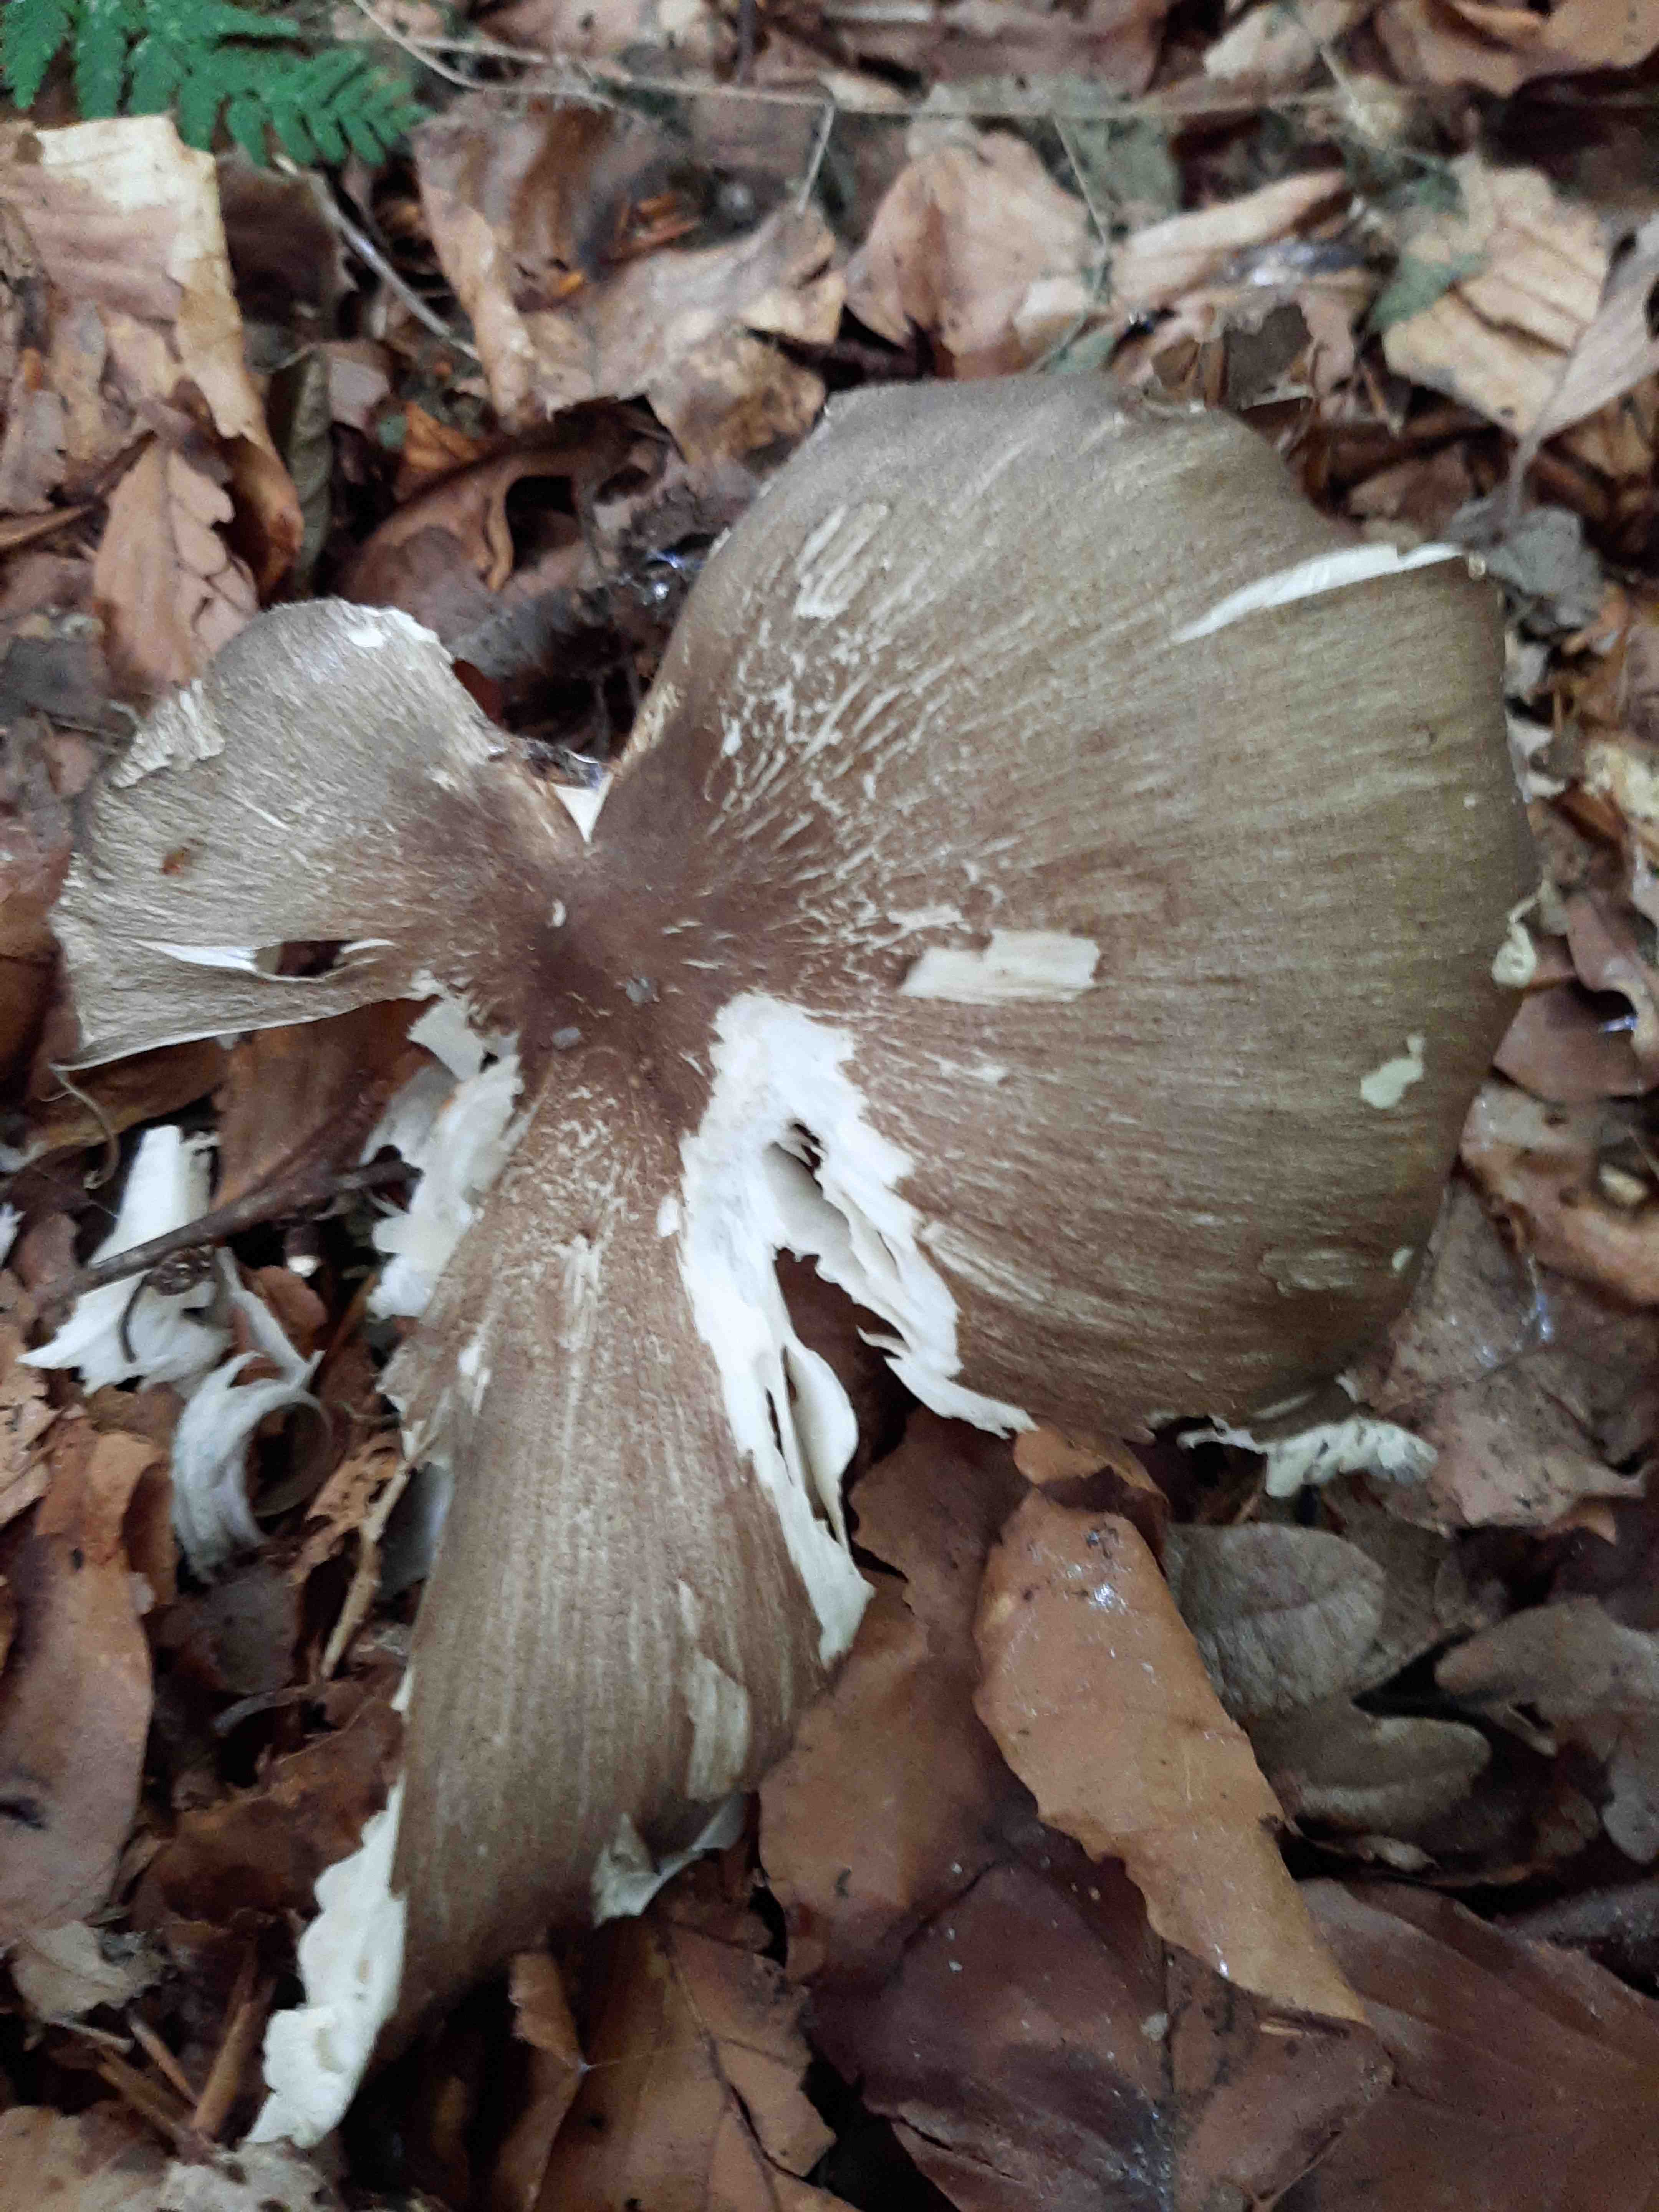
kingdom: Fungi
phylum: Basidiomycota
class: Agaricomycetes
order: Agaricales
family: Tricholomataceae
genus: Megacollybia
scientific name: Megacollybia platyphylla
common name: bredbladet væbnerhat
